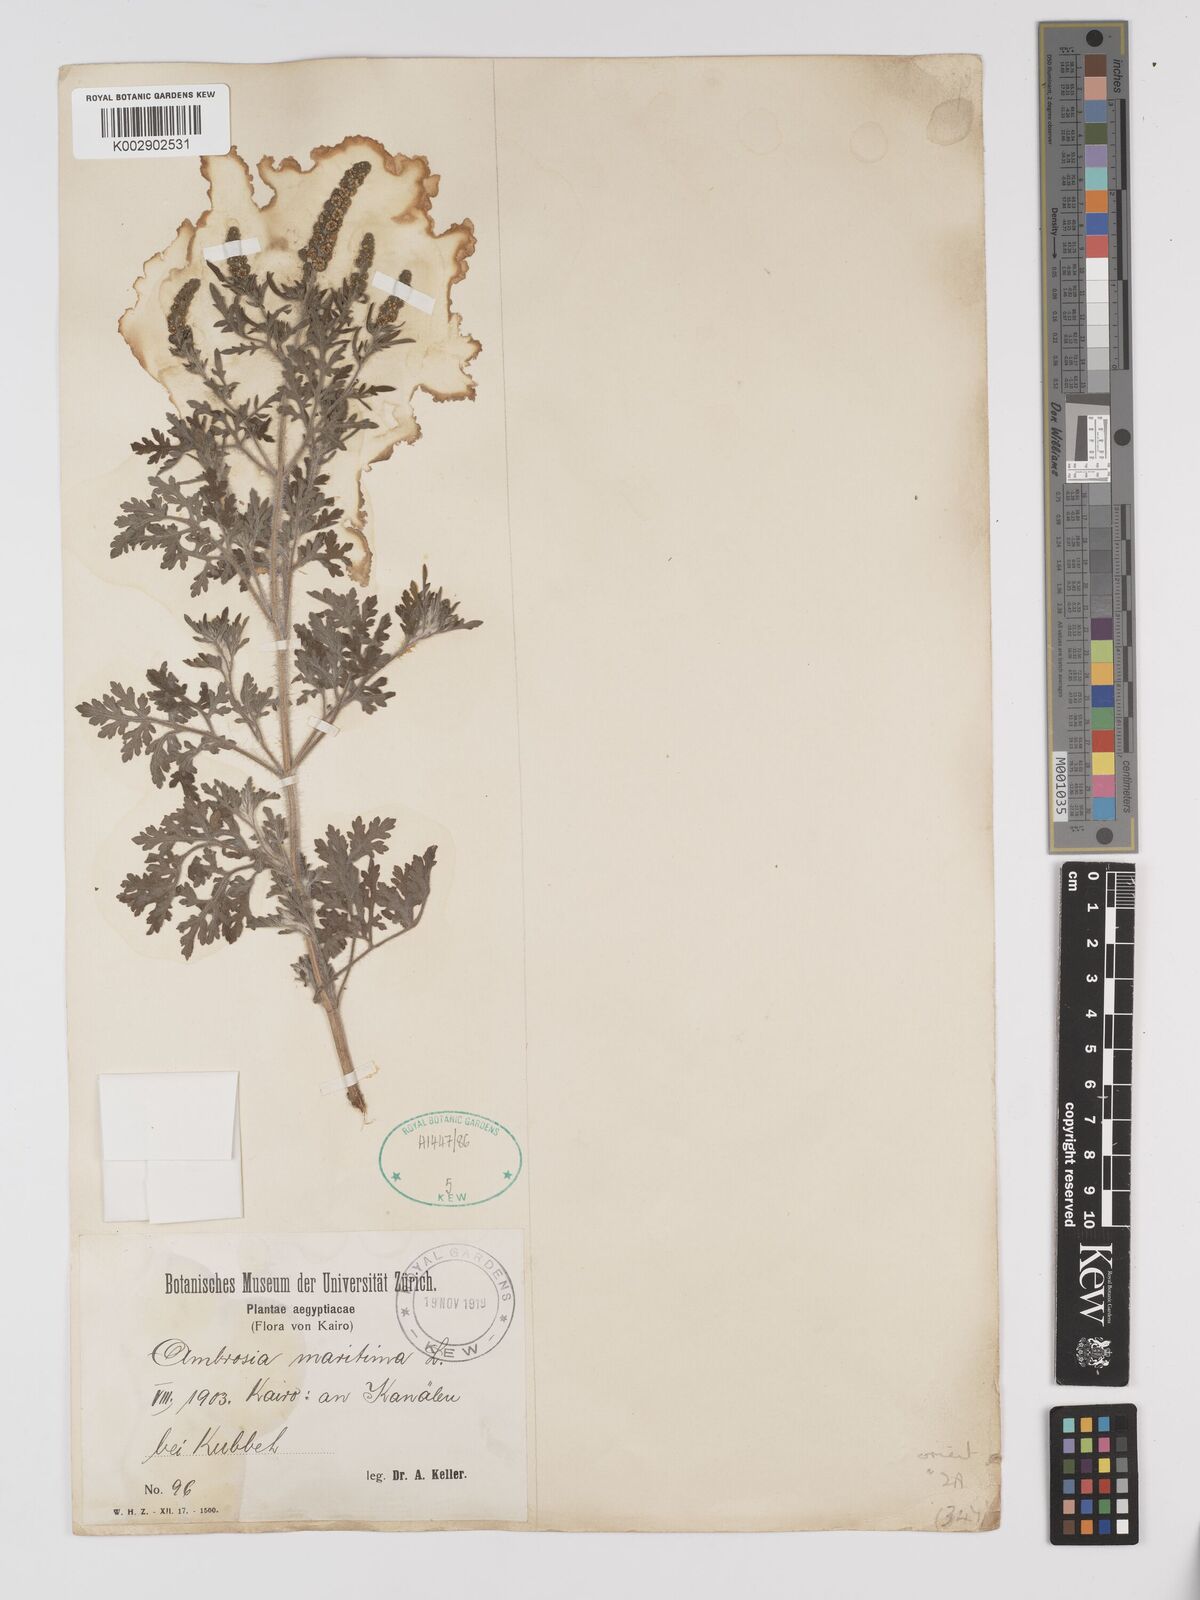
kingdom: Plantae
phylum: Tracheophyta
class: Magnoliopsida
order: Asterales
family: Asteraceae
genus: Ambrosia
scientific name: Ambrosia maritima
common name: Sea ambrosia
